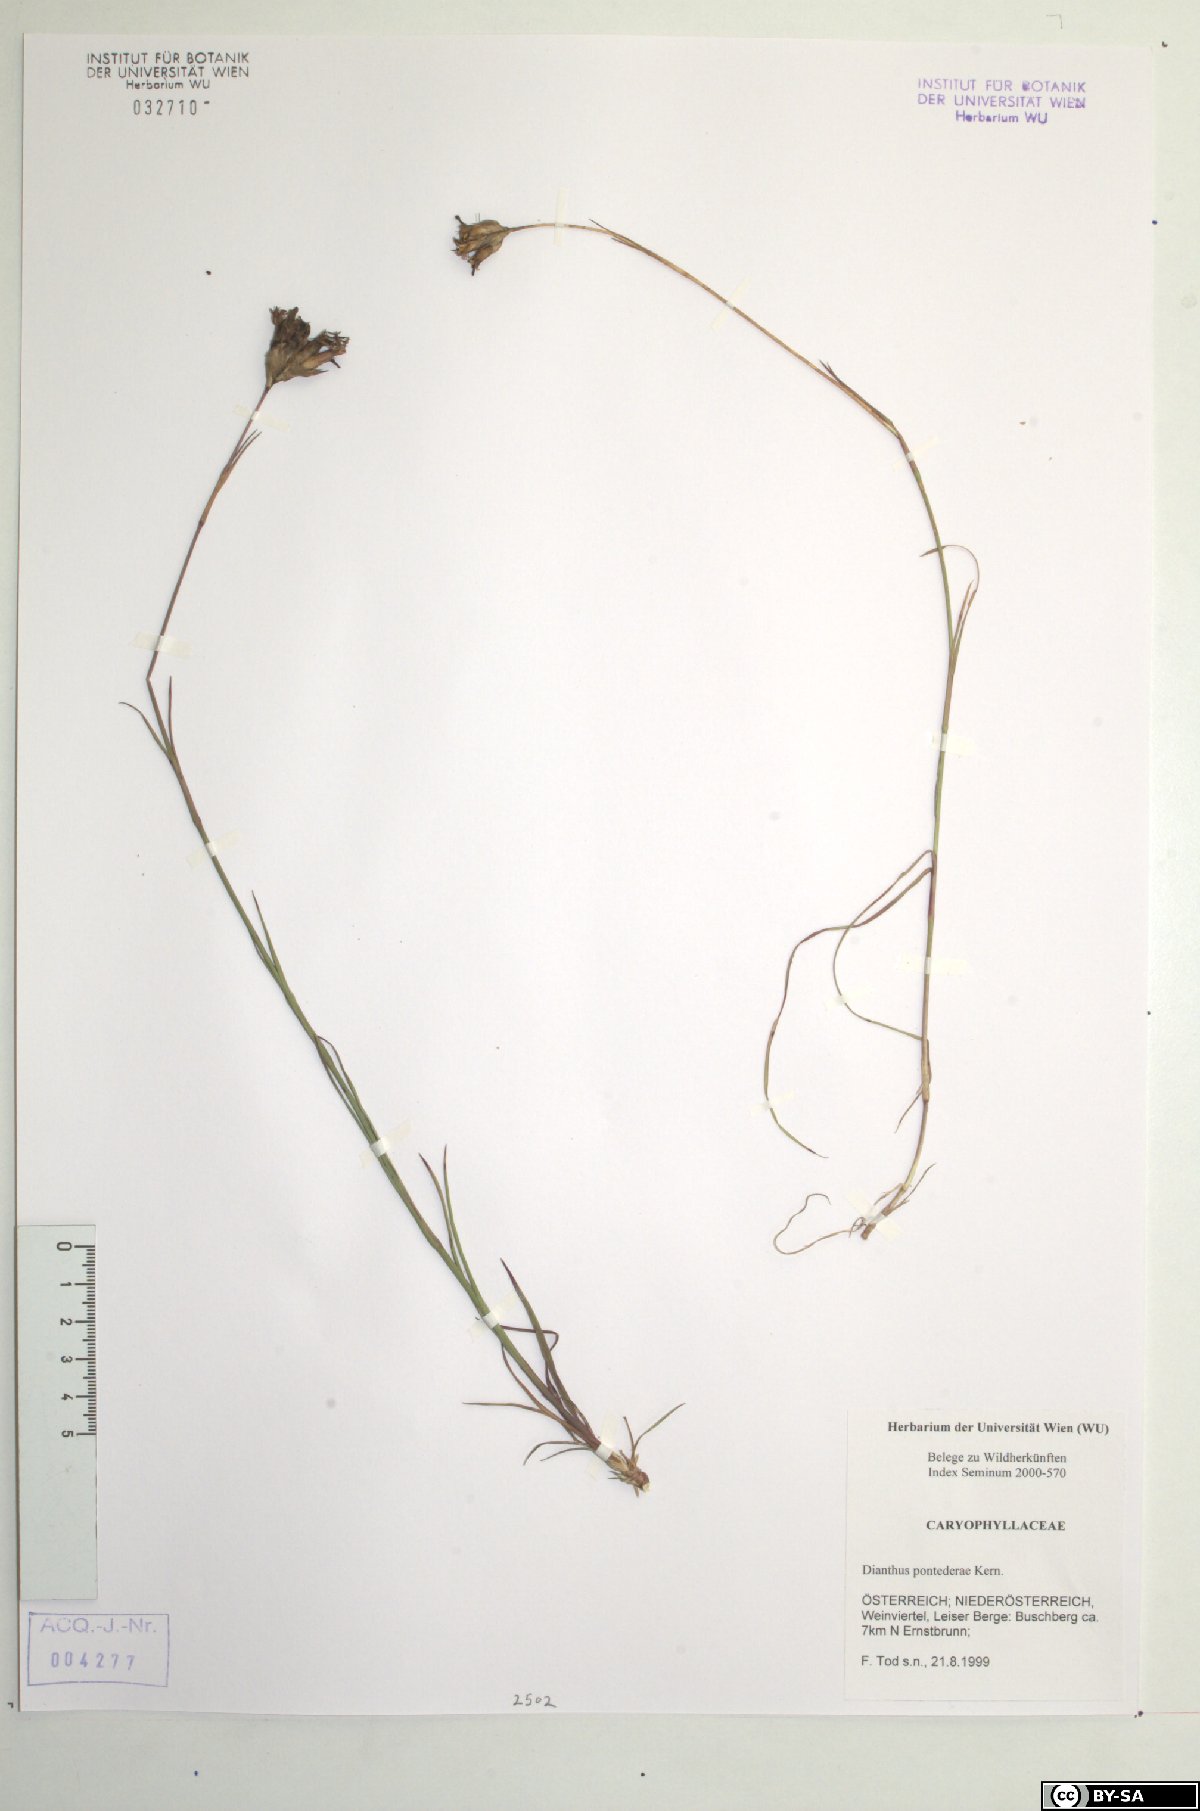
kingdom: Plantae
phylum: Tracheophyta
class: Magnoliopsida
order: Caryophyllales
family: Caryophyllaceae
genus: Dianthus
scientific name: Dianthus pontederae
